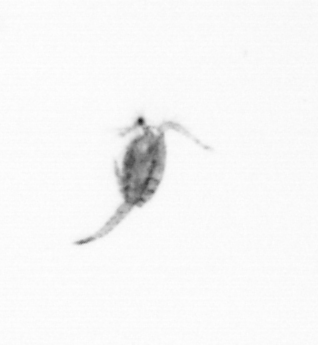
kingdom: Animalia
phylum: Arthropoda
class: Copepoda
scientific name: Copepoda
